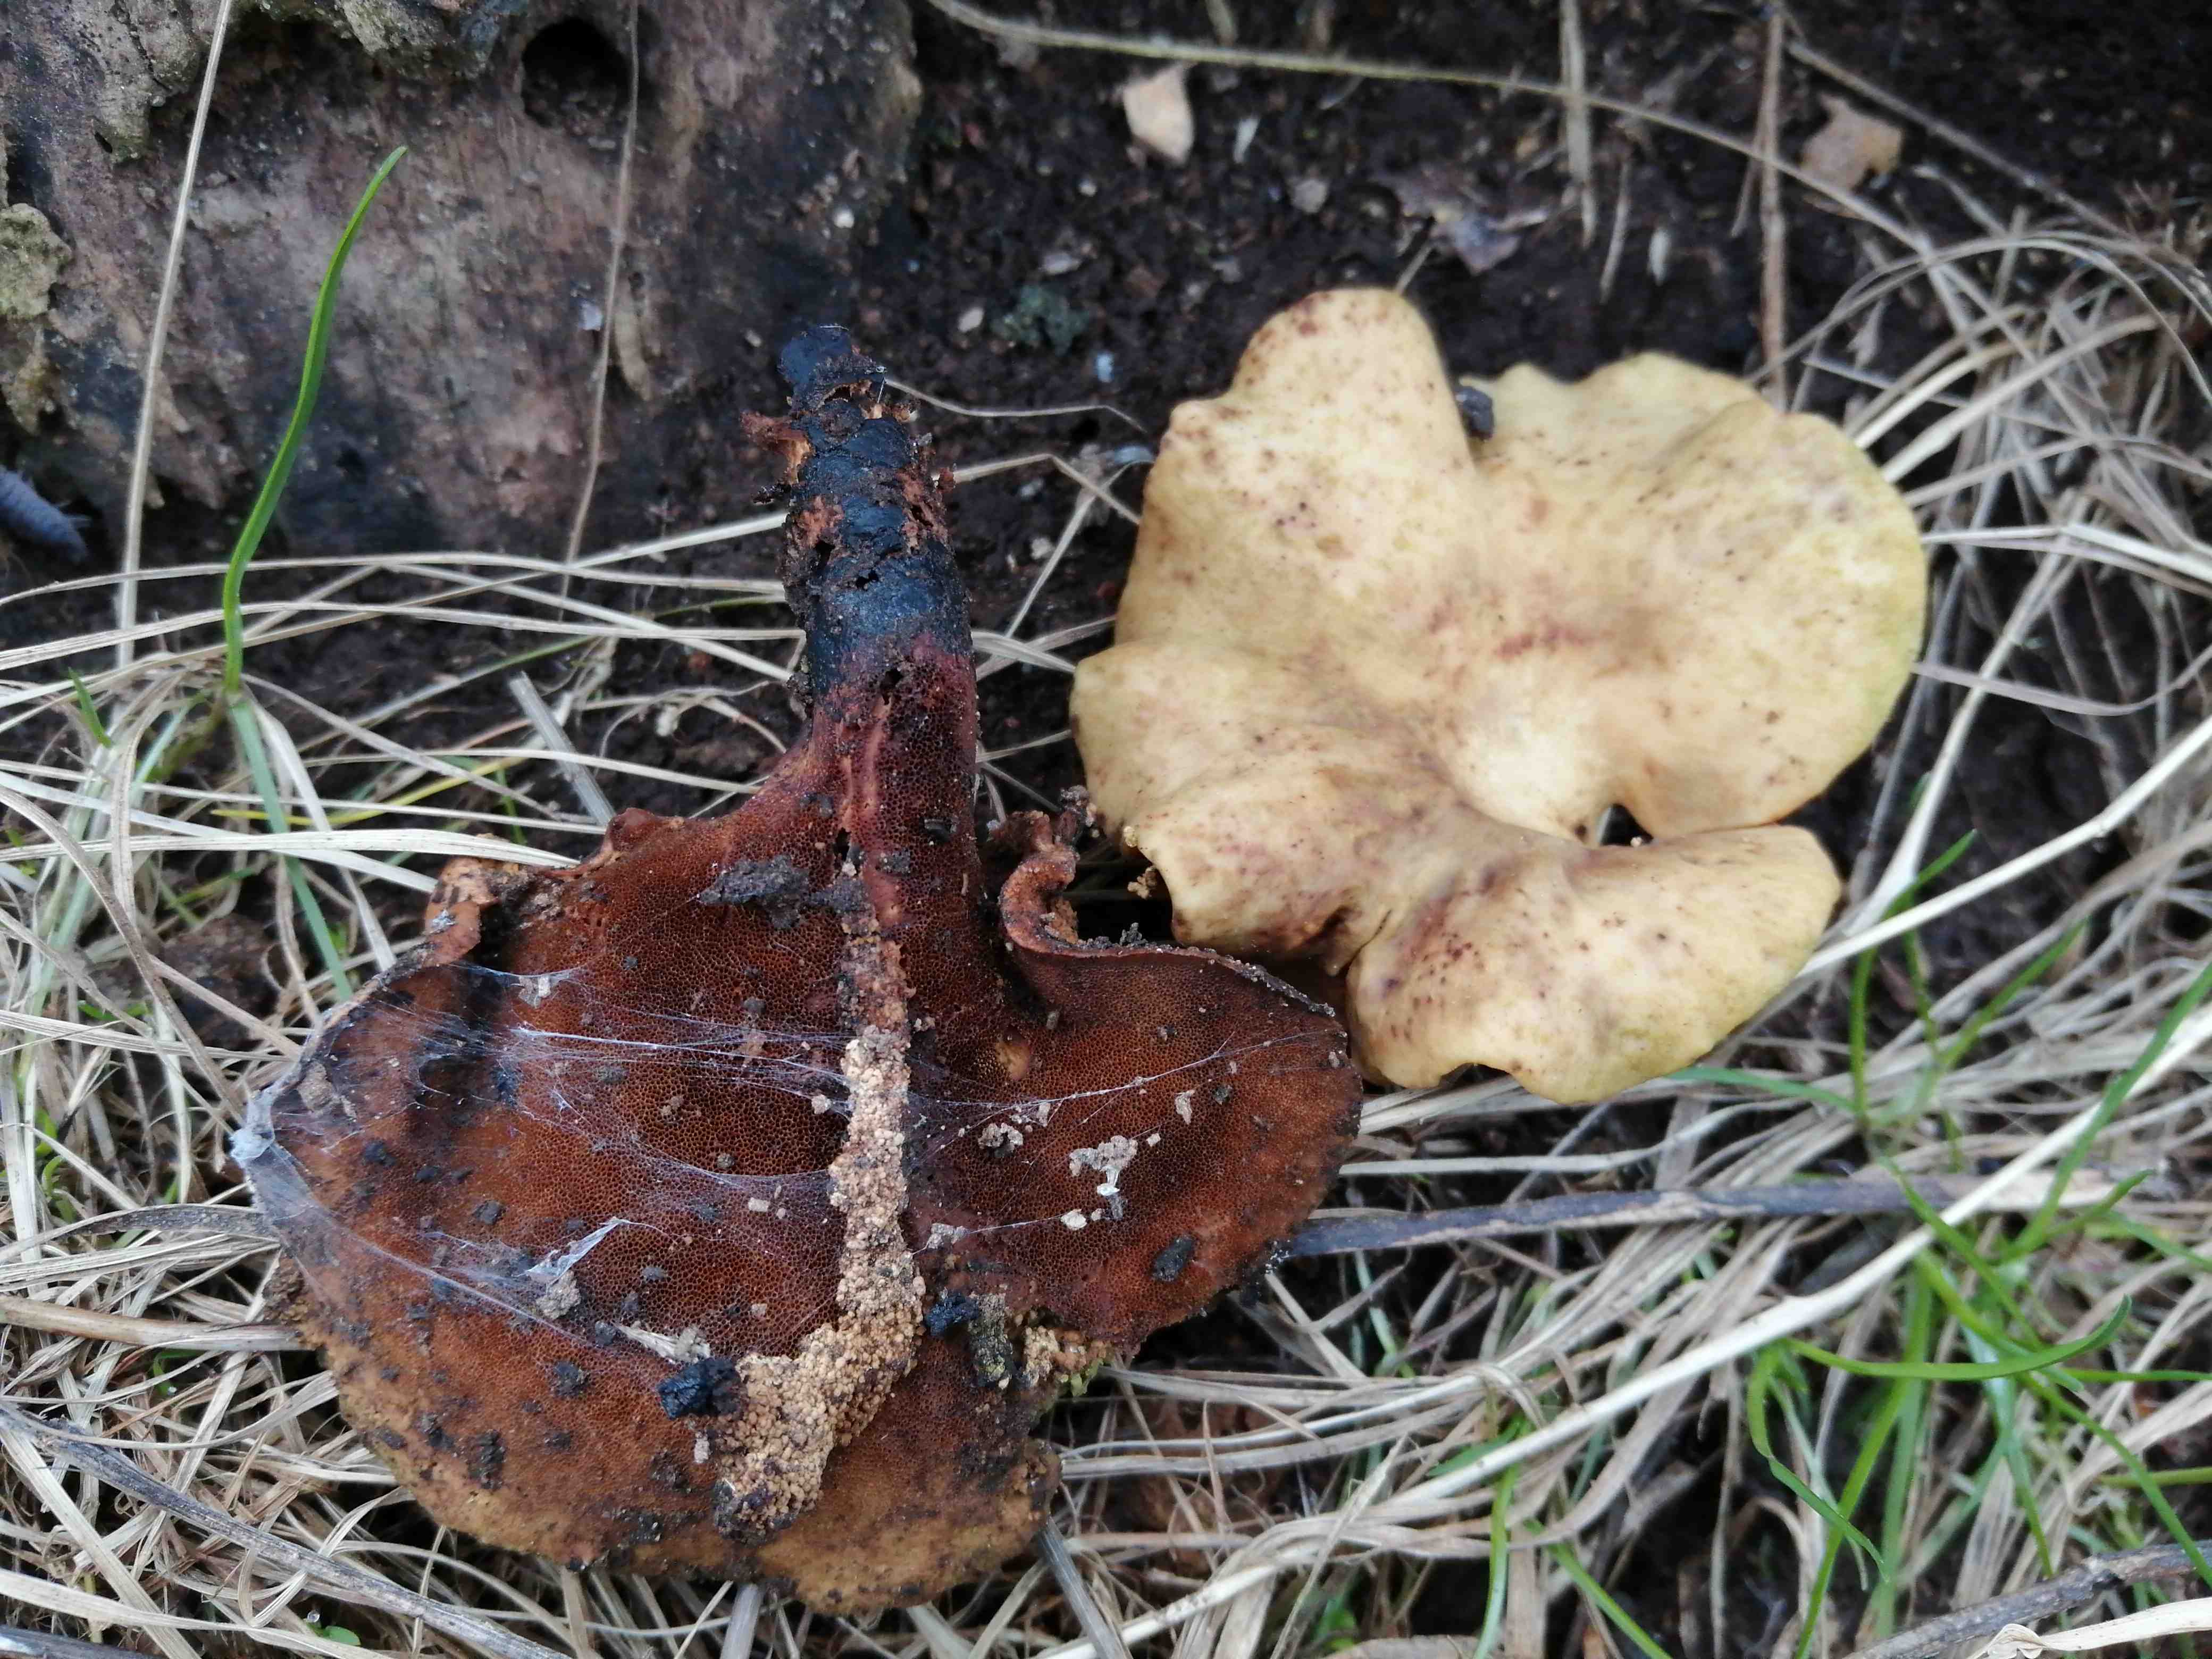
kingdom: Fungi
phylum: Basidiomycota
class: Agaricomycetes
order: Polyporales
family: Polyporaceae
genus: Cerioporus
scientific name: Cerioporus varius
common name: foranderlig stilkporesvamp
